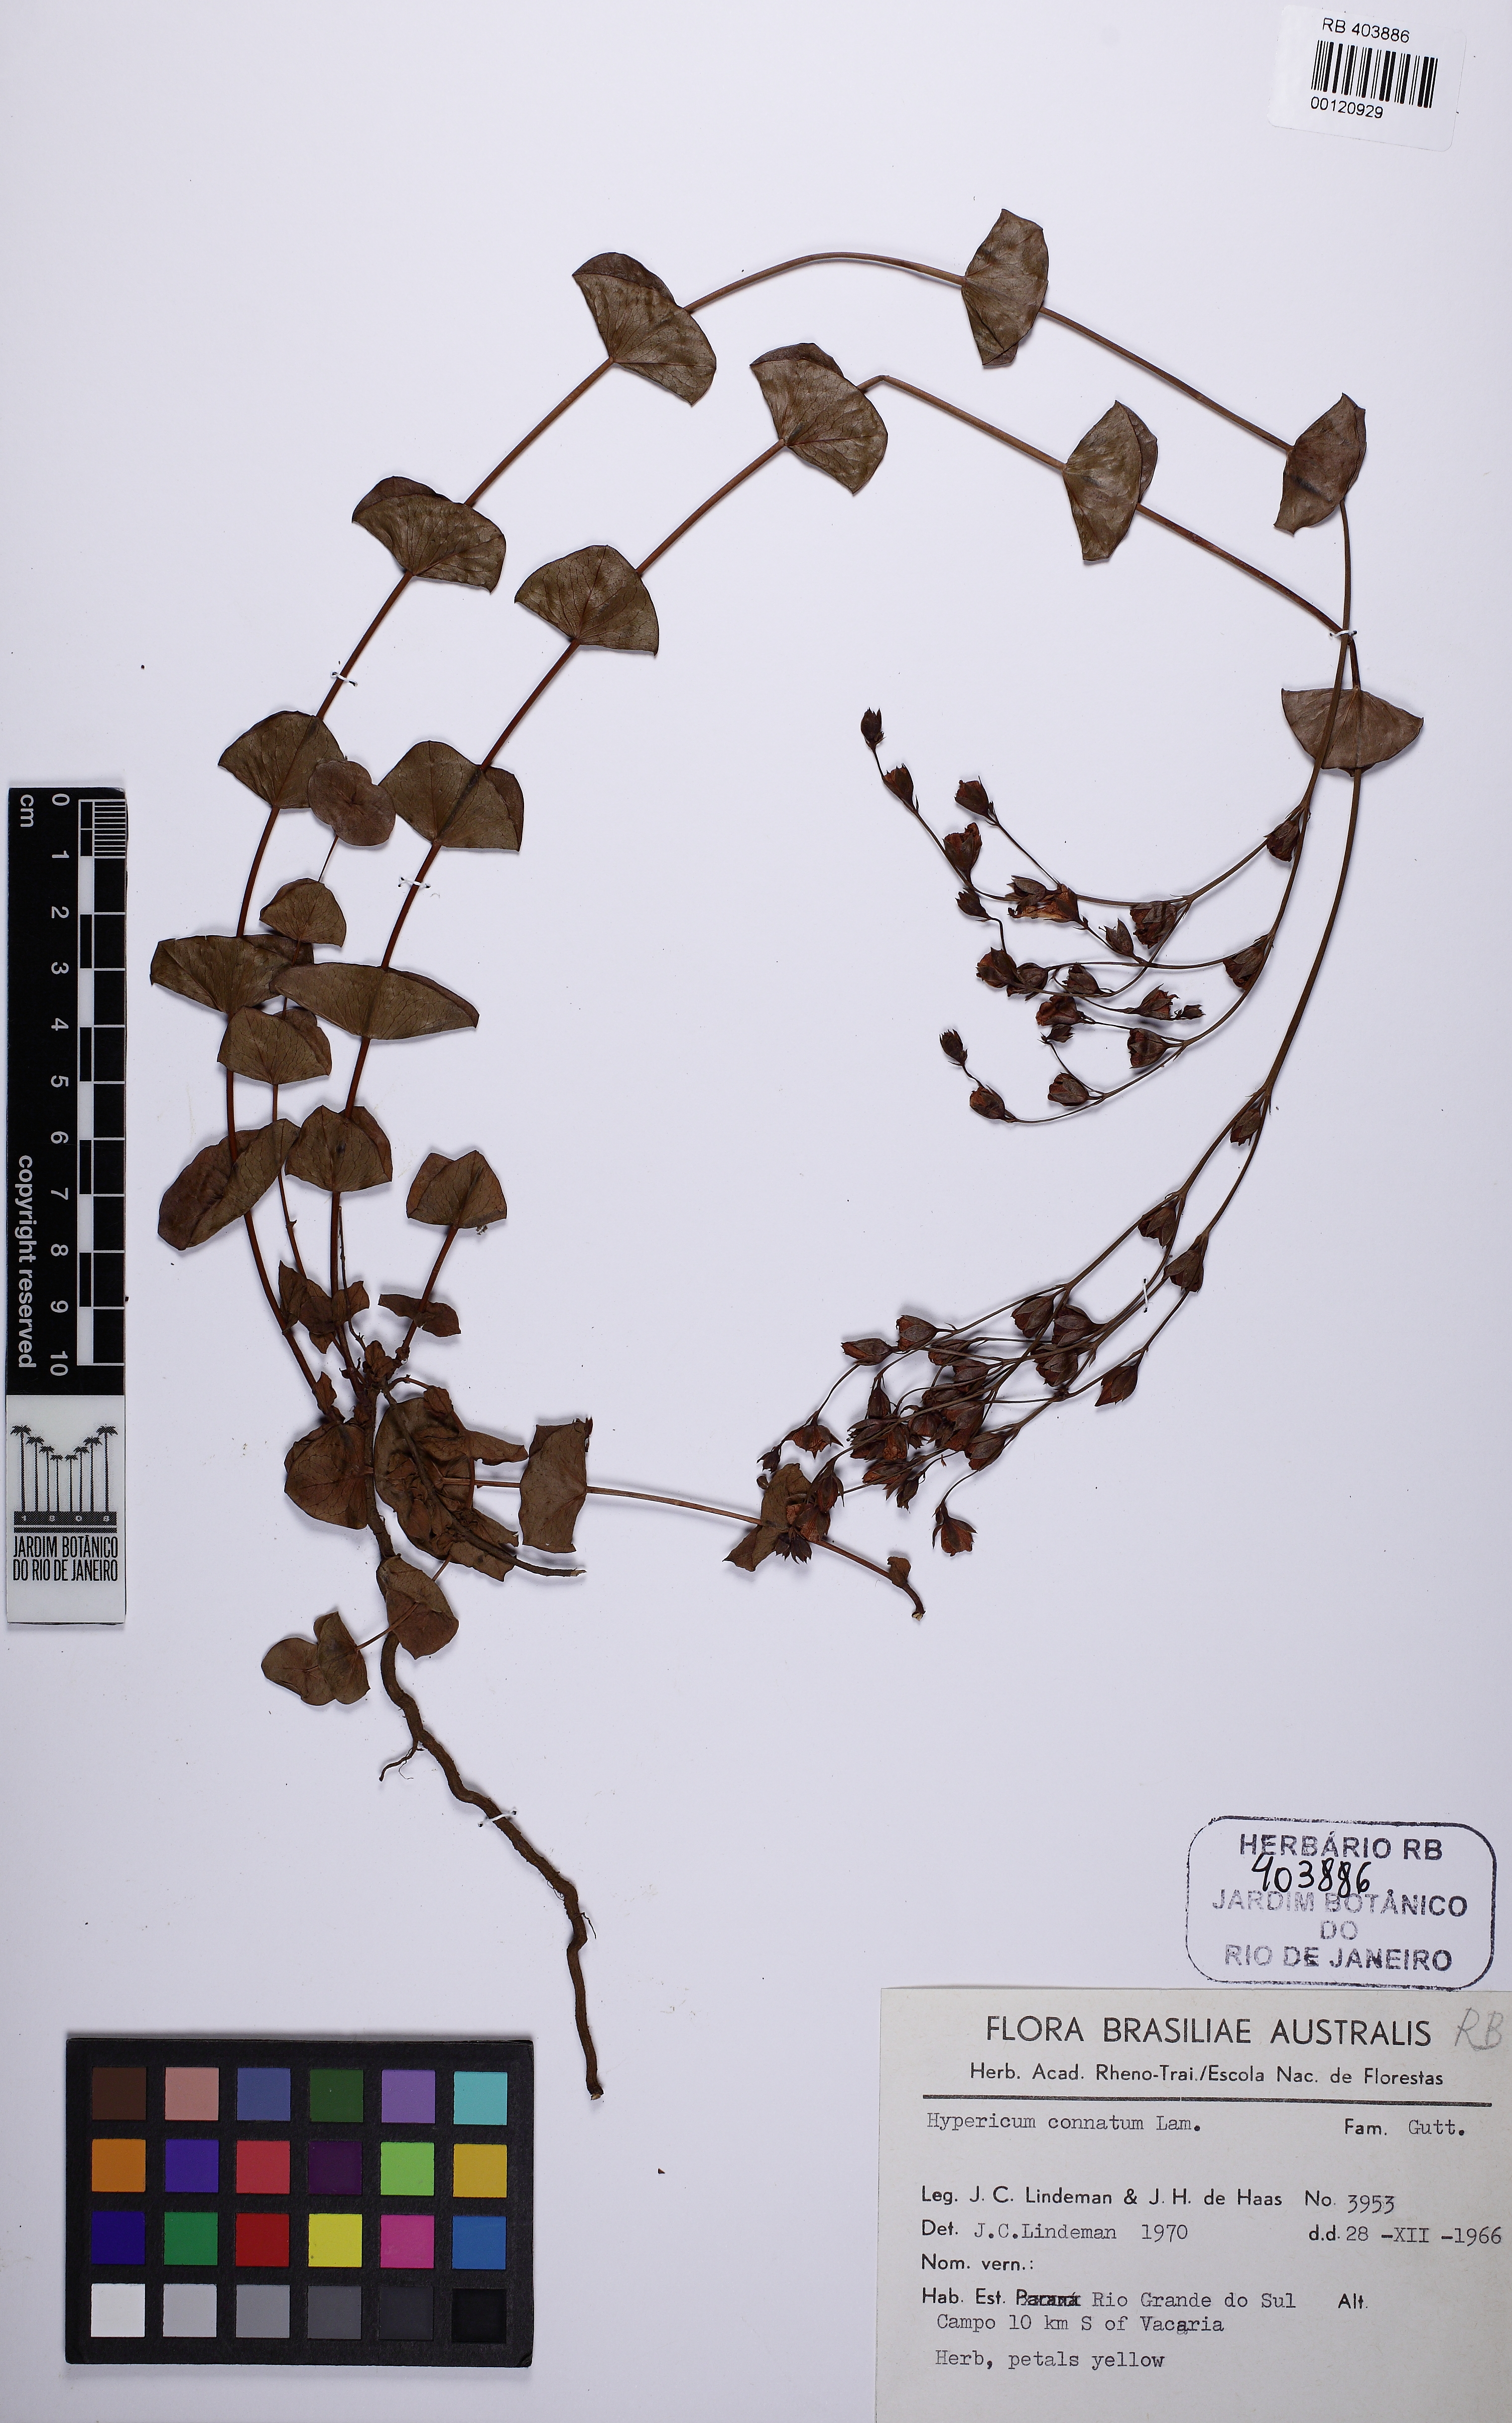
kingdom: Plantae
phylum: Tracheophyta
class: Magnoliopsida
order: Malpighiales
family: Hypericaceae
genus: Hypericum
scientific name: Hypericum connatum
